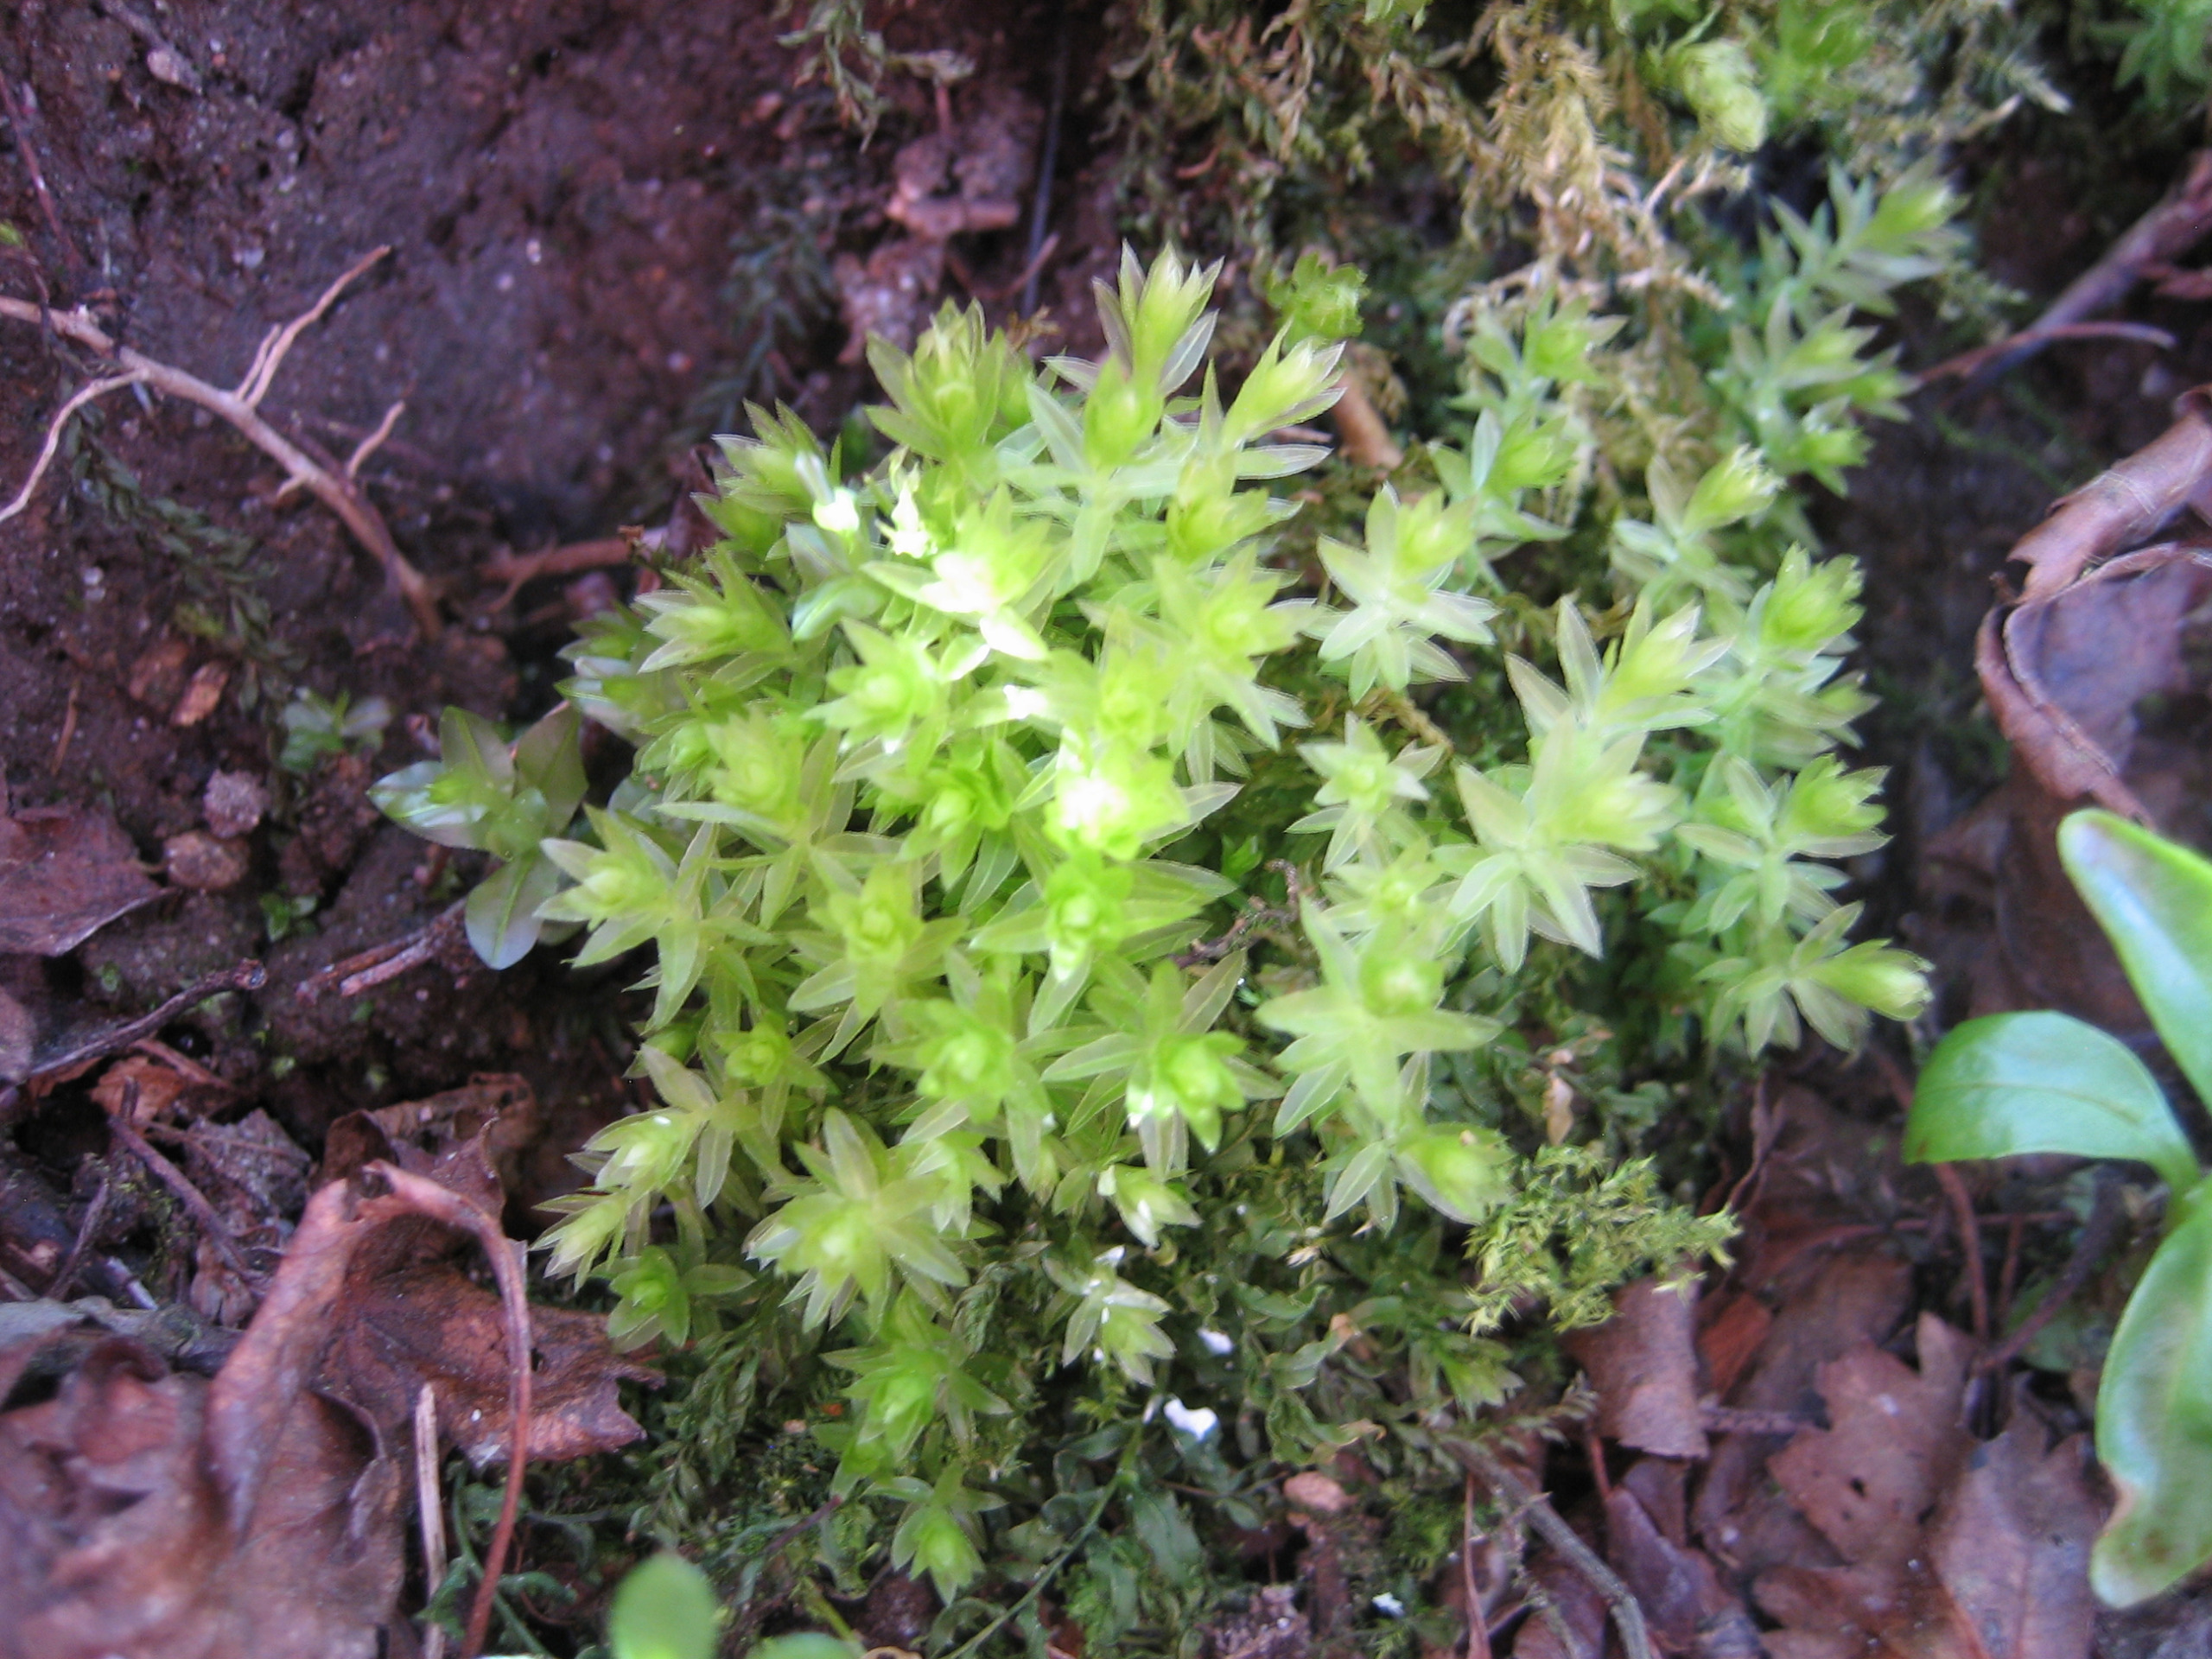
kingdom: Plantae
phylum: Bryophyta
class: Bryopsida
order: Bryales
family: Mniaceae
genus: Mnium
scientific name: Mnium hornum
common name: Brunfiltet stjernemos
